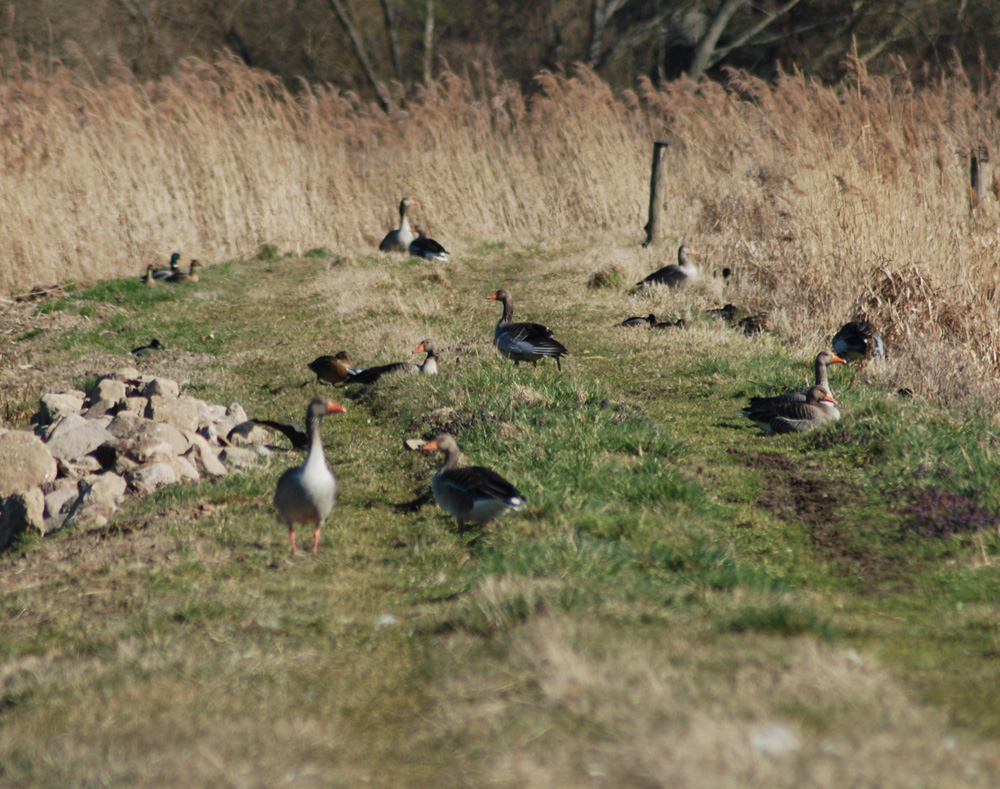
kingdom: Animalia
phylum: Chordata
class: Aves
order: Anseriformes
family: Anatidae
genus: Anser
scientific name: Anser anser
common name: Greylag goose
